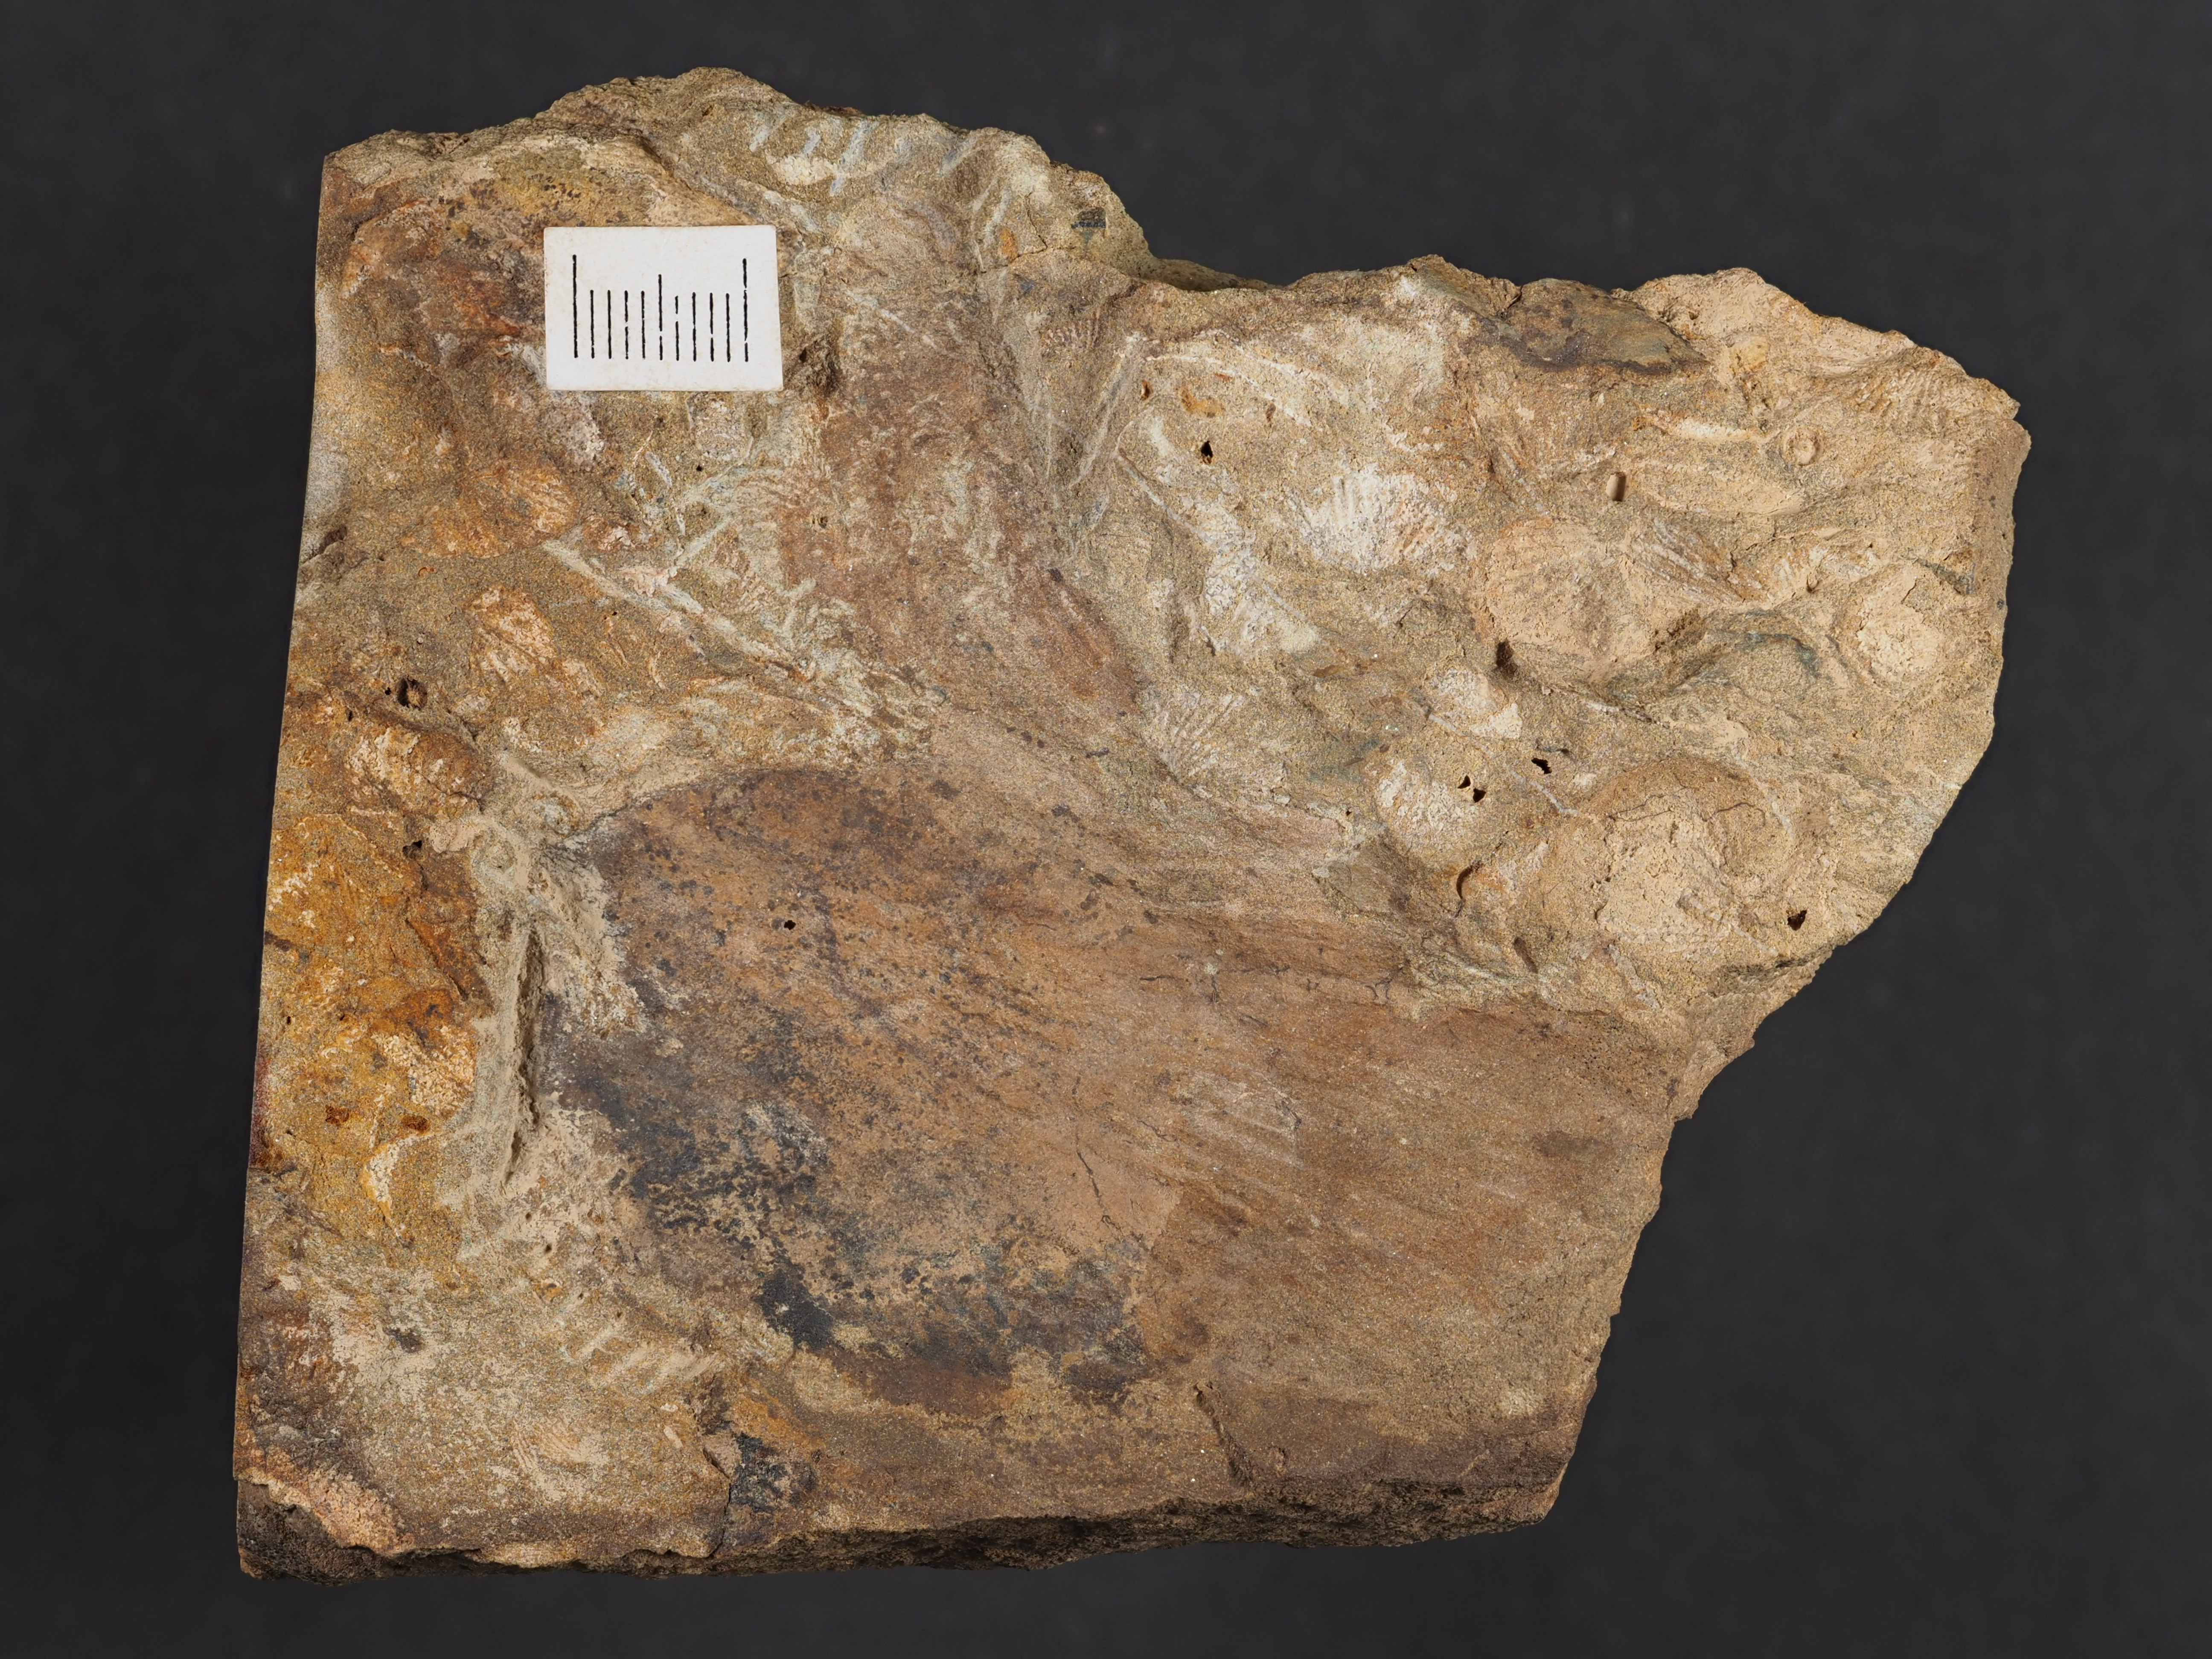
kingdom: Animalia
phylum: Mollusca
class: Bivalvia
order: Ostreida
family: Pterineidae
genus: Limoptera
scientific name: Limoptera
